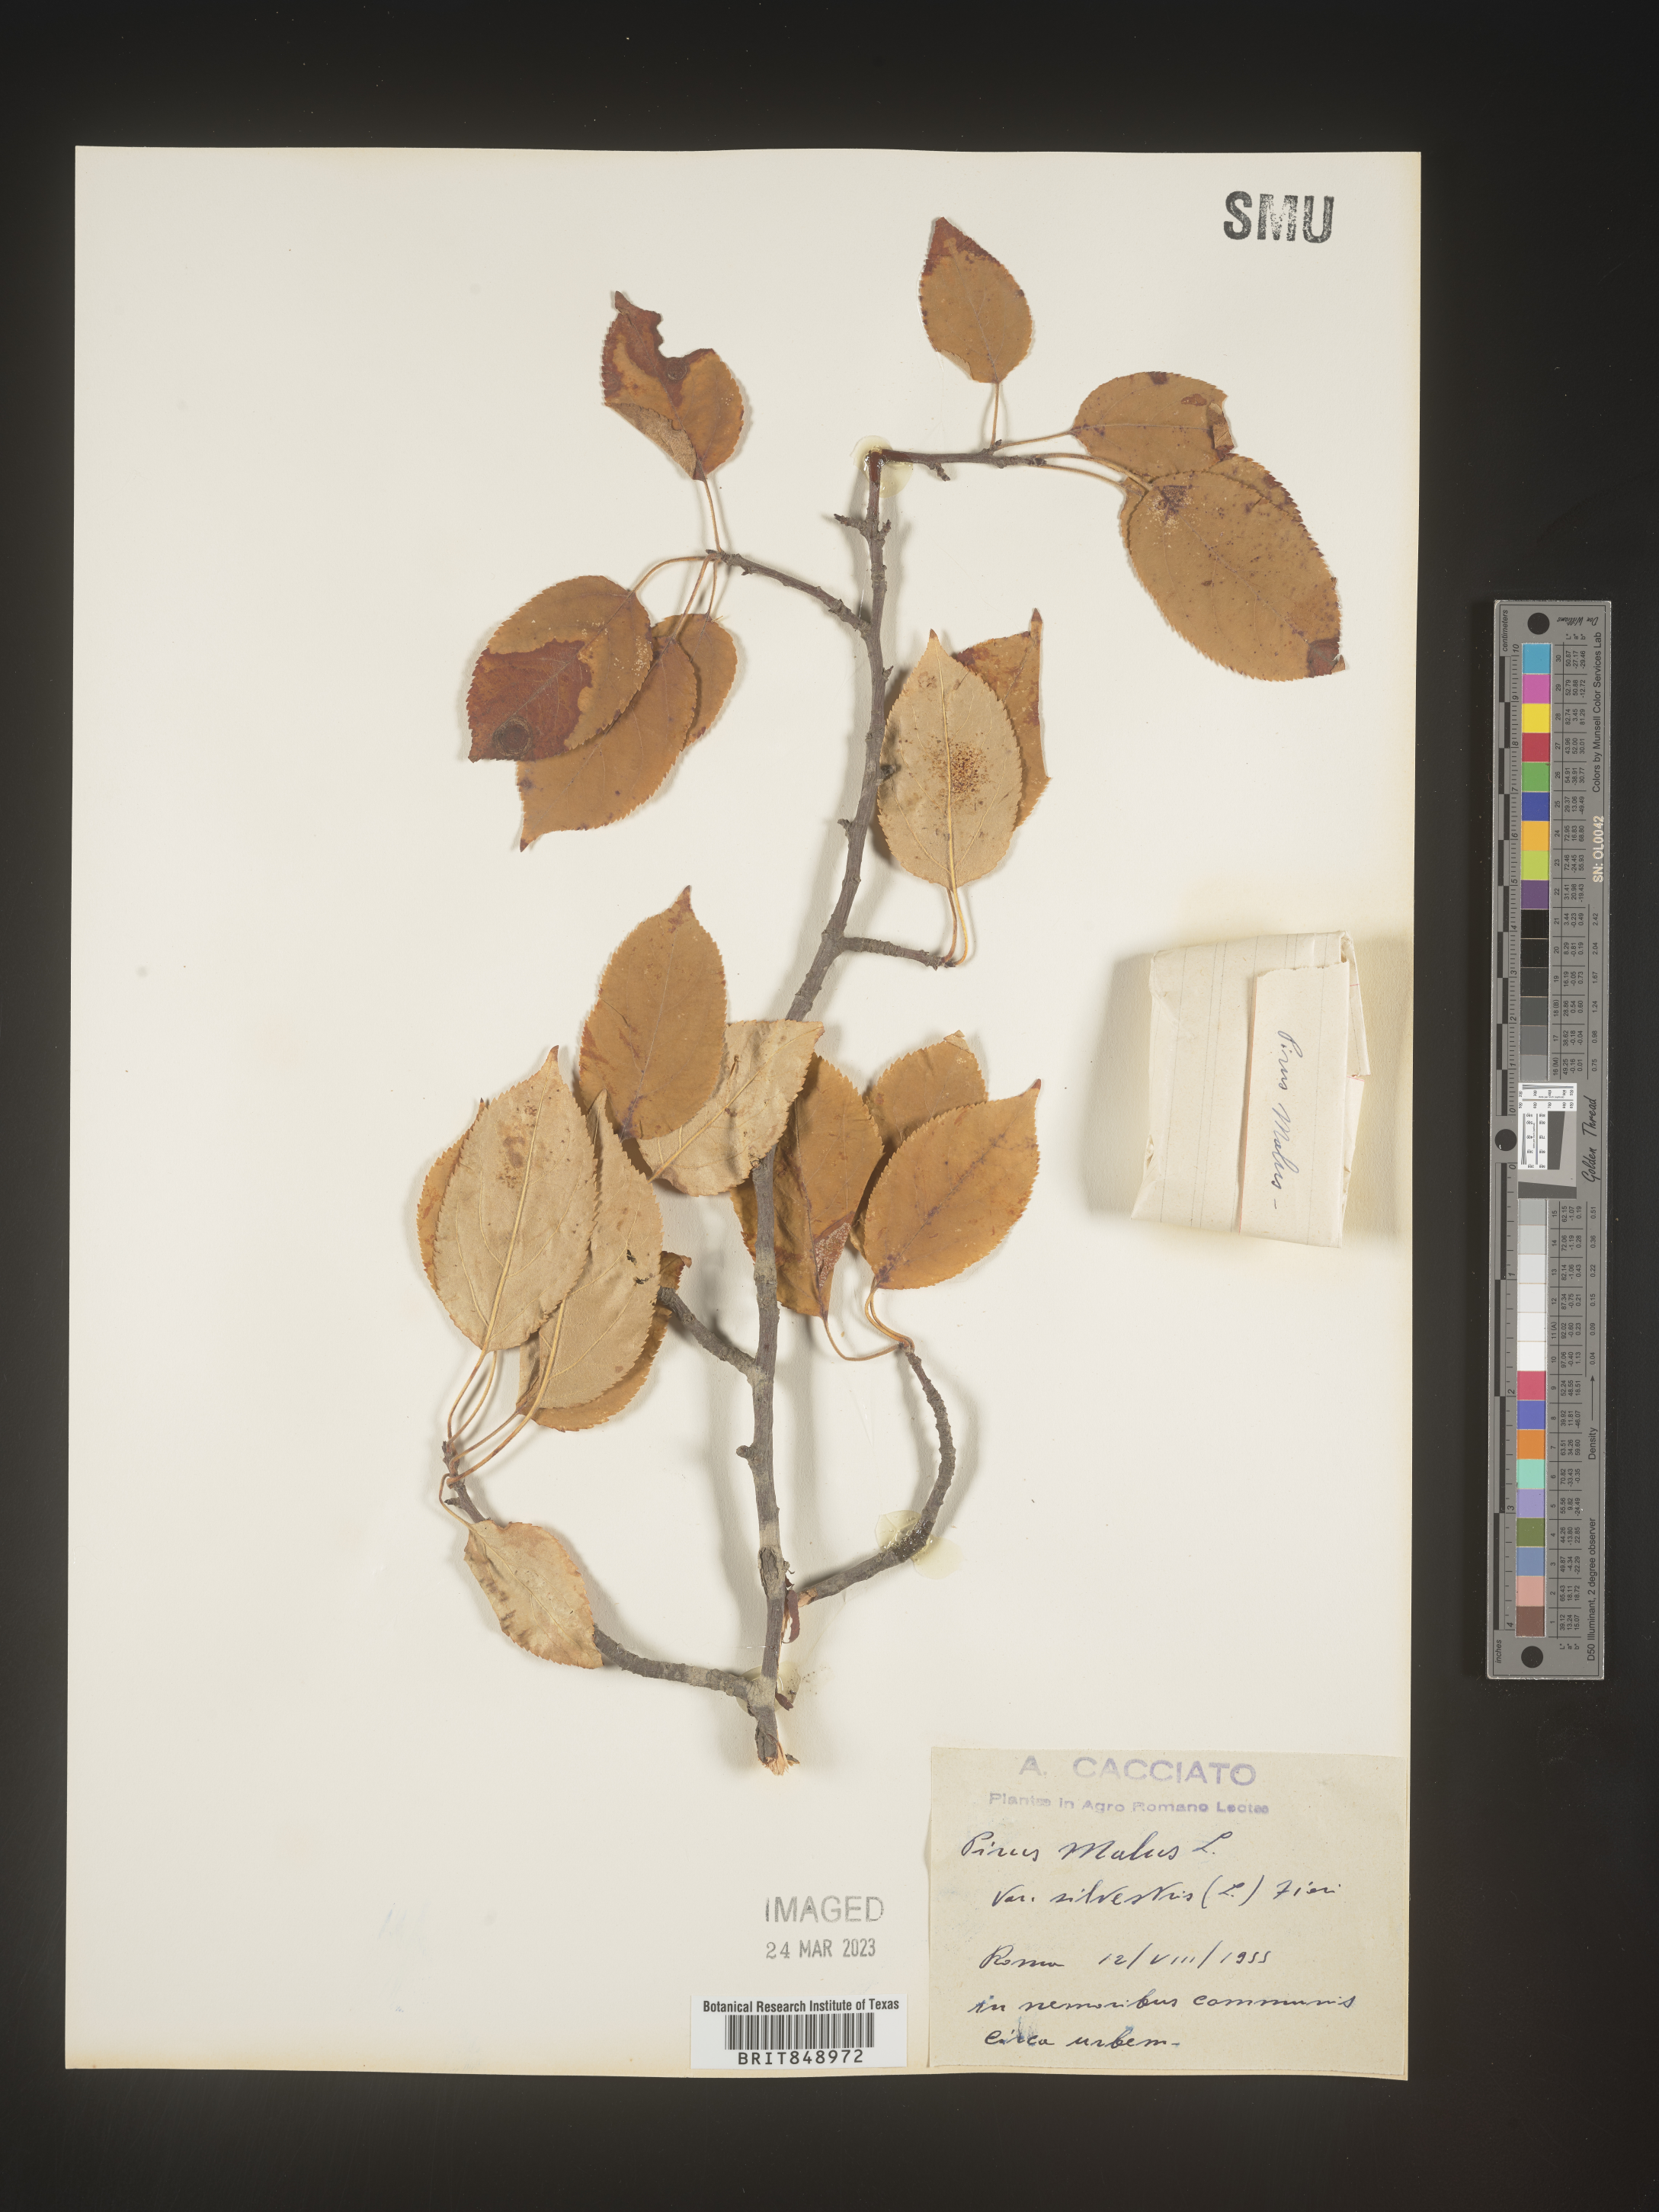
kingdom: Plantae
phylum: Tracheophyta
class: Magnoliopsida
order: Rosales
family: Rosaceae
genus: Malus
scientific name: Malus
